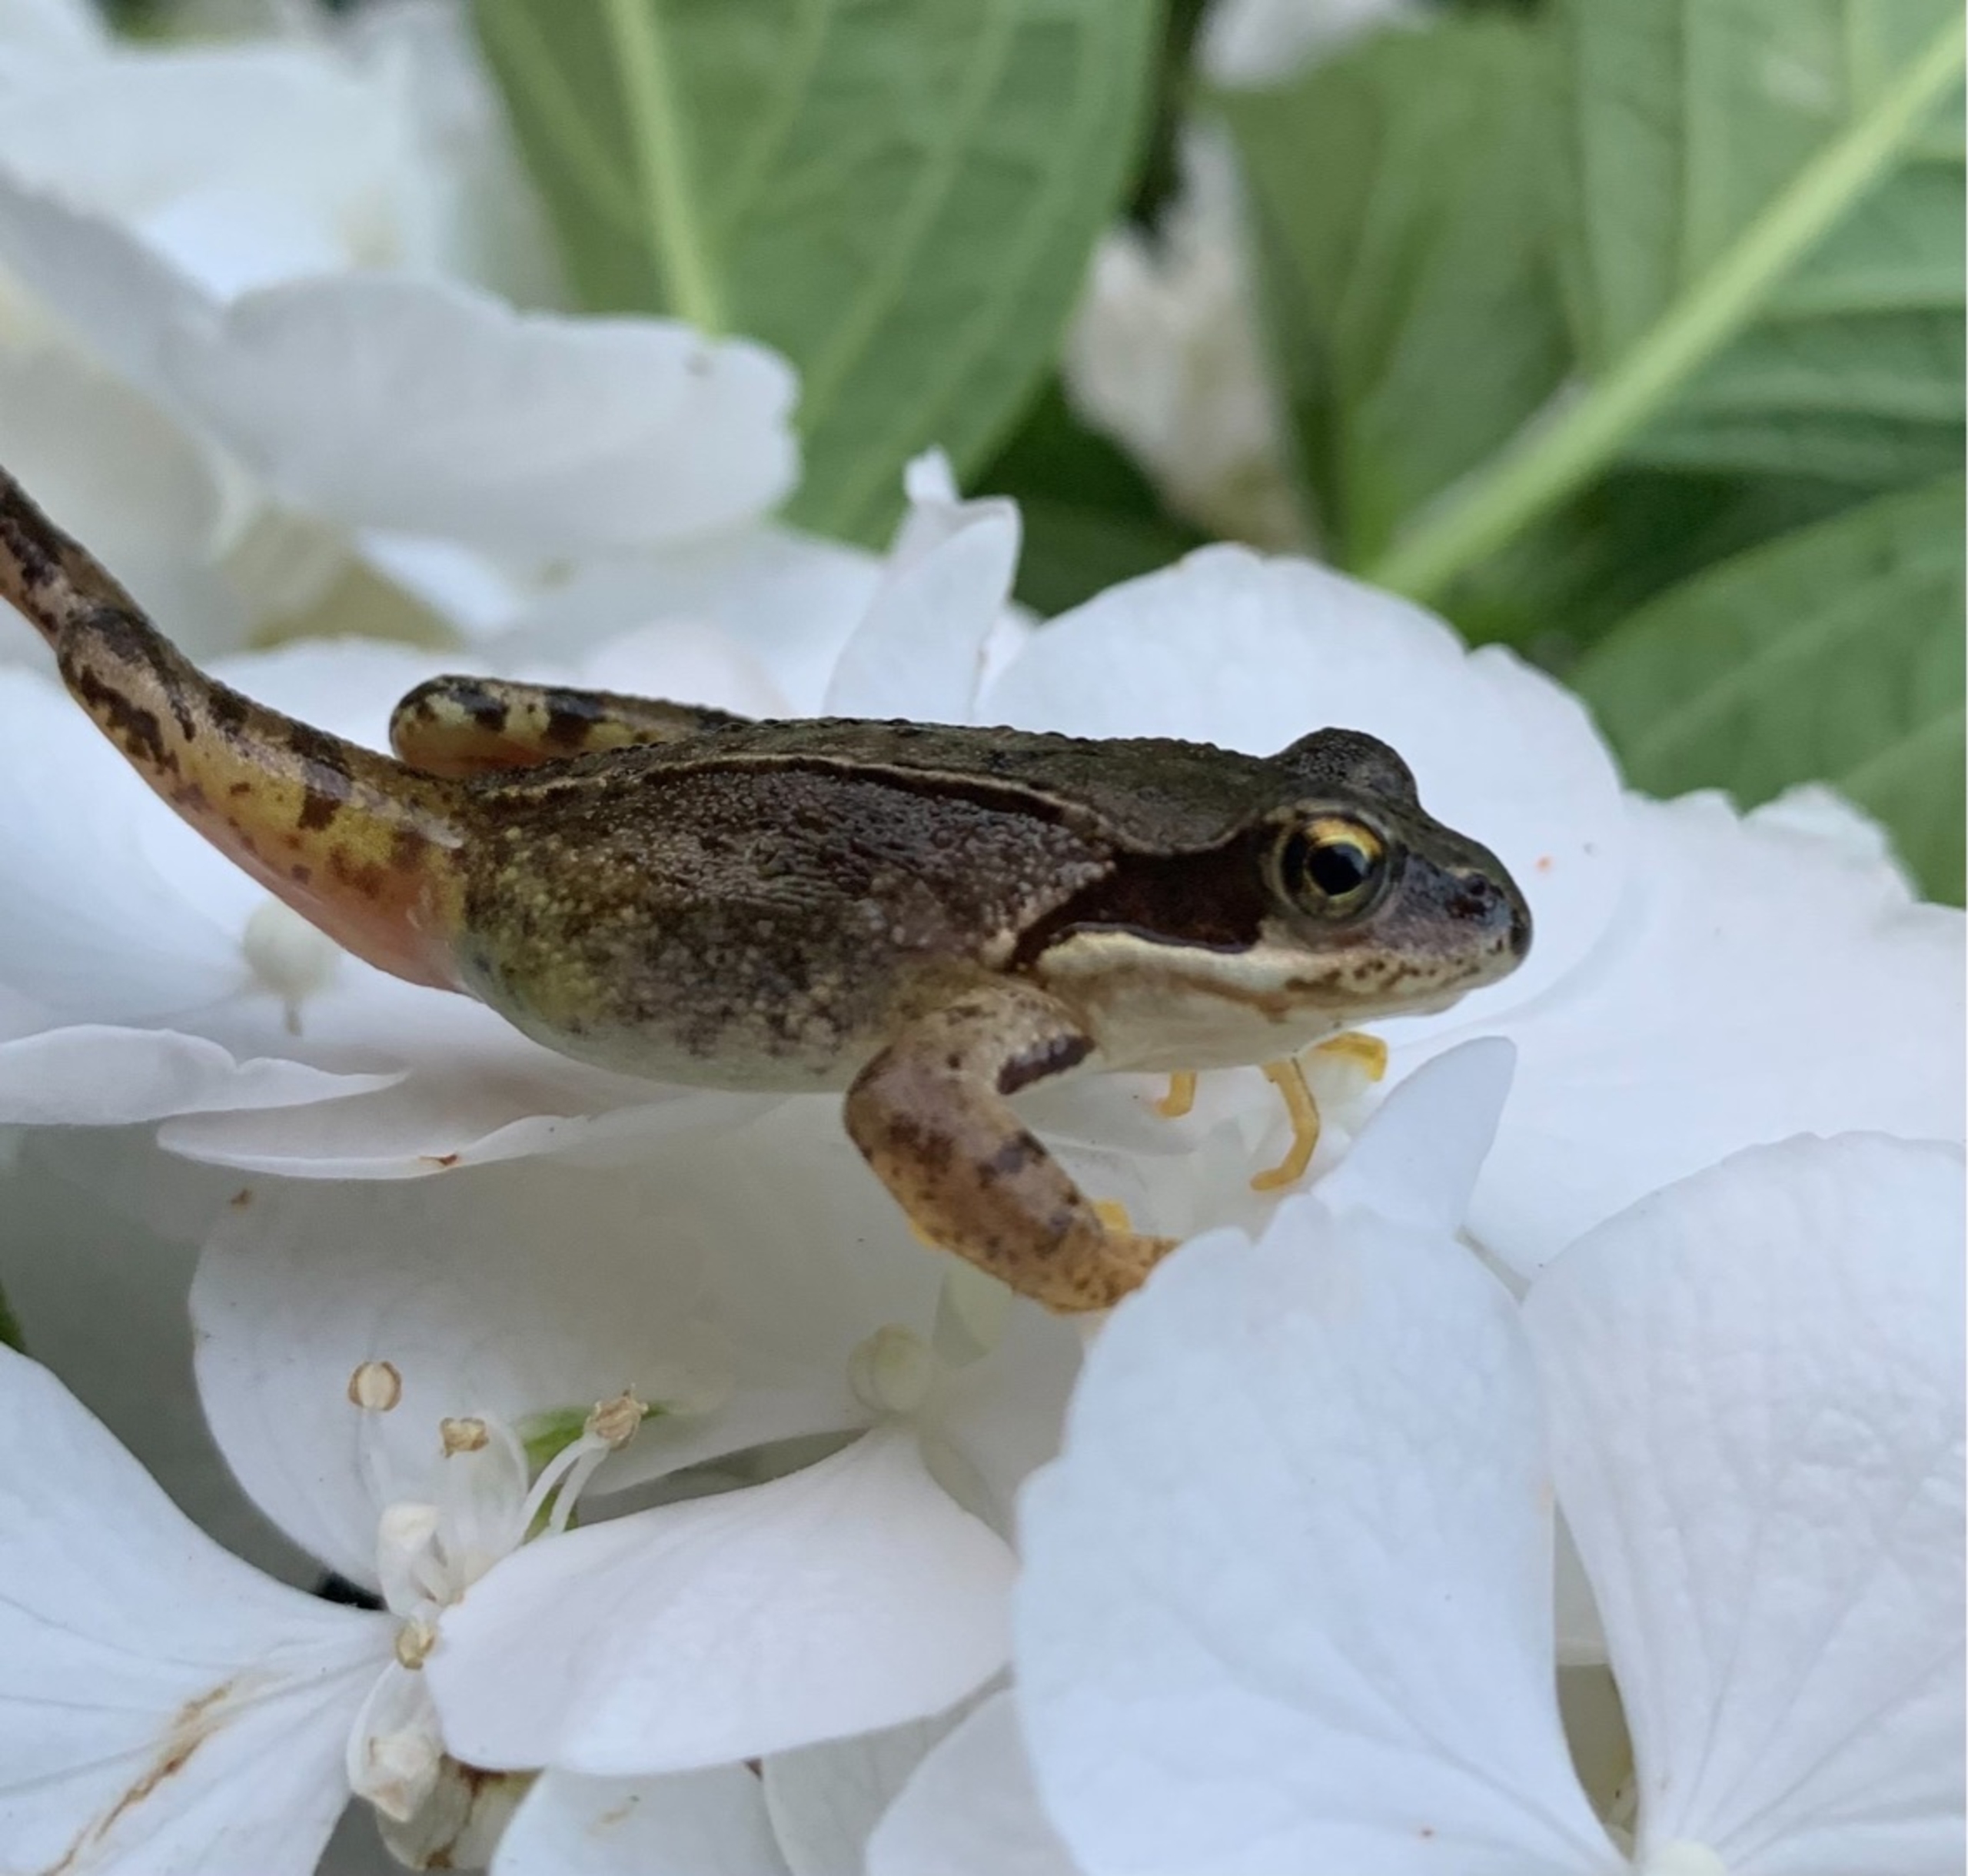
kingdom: Animalia
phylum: Chordata
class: Amphibia
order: Anura
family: Ranidae
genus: Rana
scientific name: Rana temporaria
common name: Butsnudet frø
